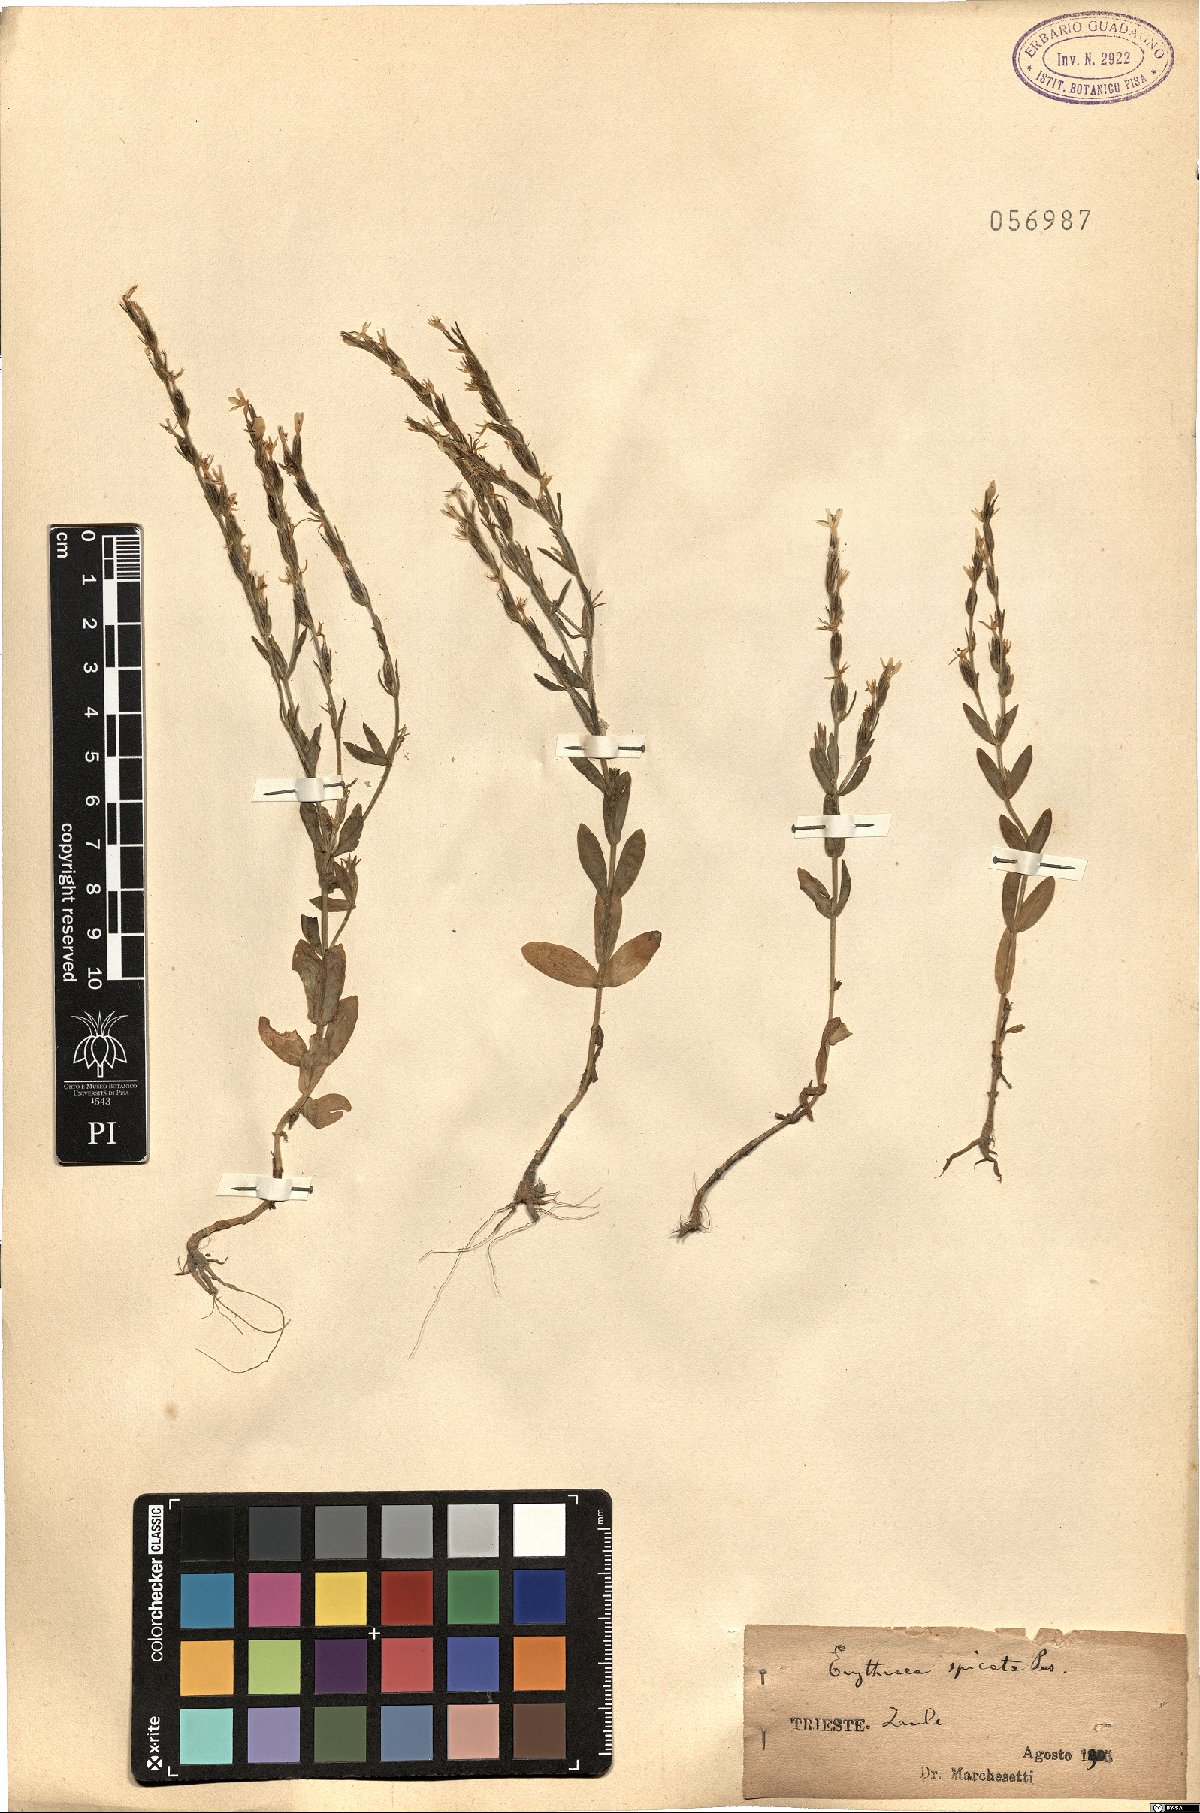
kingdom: Plantae
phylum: Tracheophyta
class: Magnoliopsida
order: Gentianales
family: Gentianaceae
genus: Schenkia
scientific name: Schenkia spicata
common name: Spiked centaury
